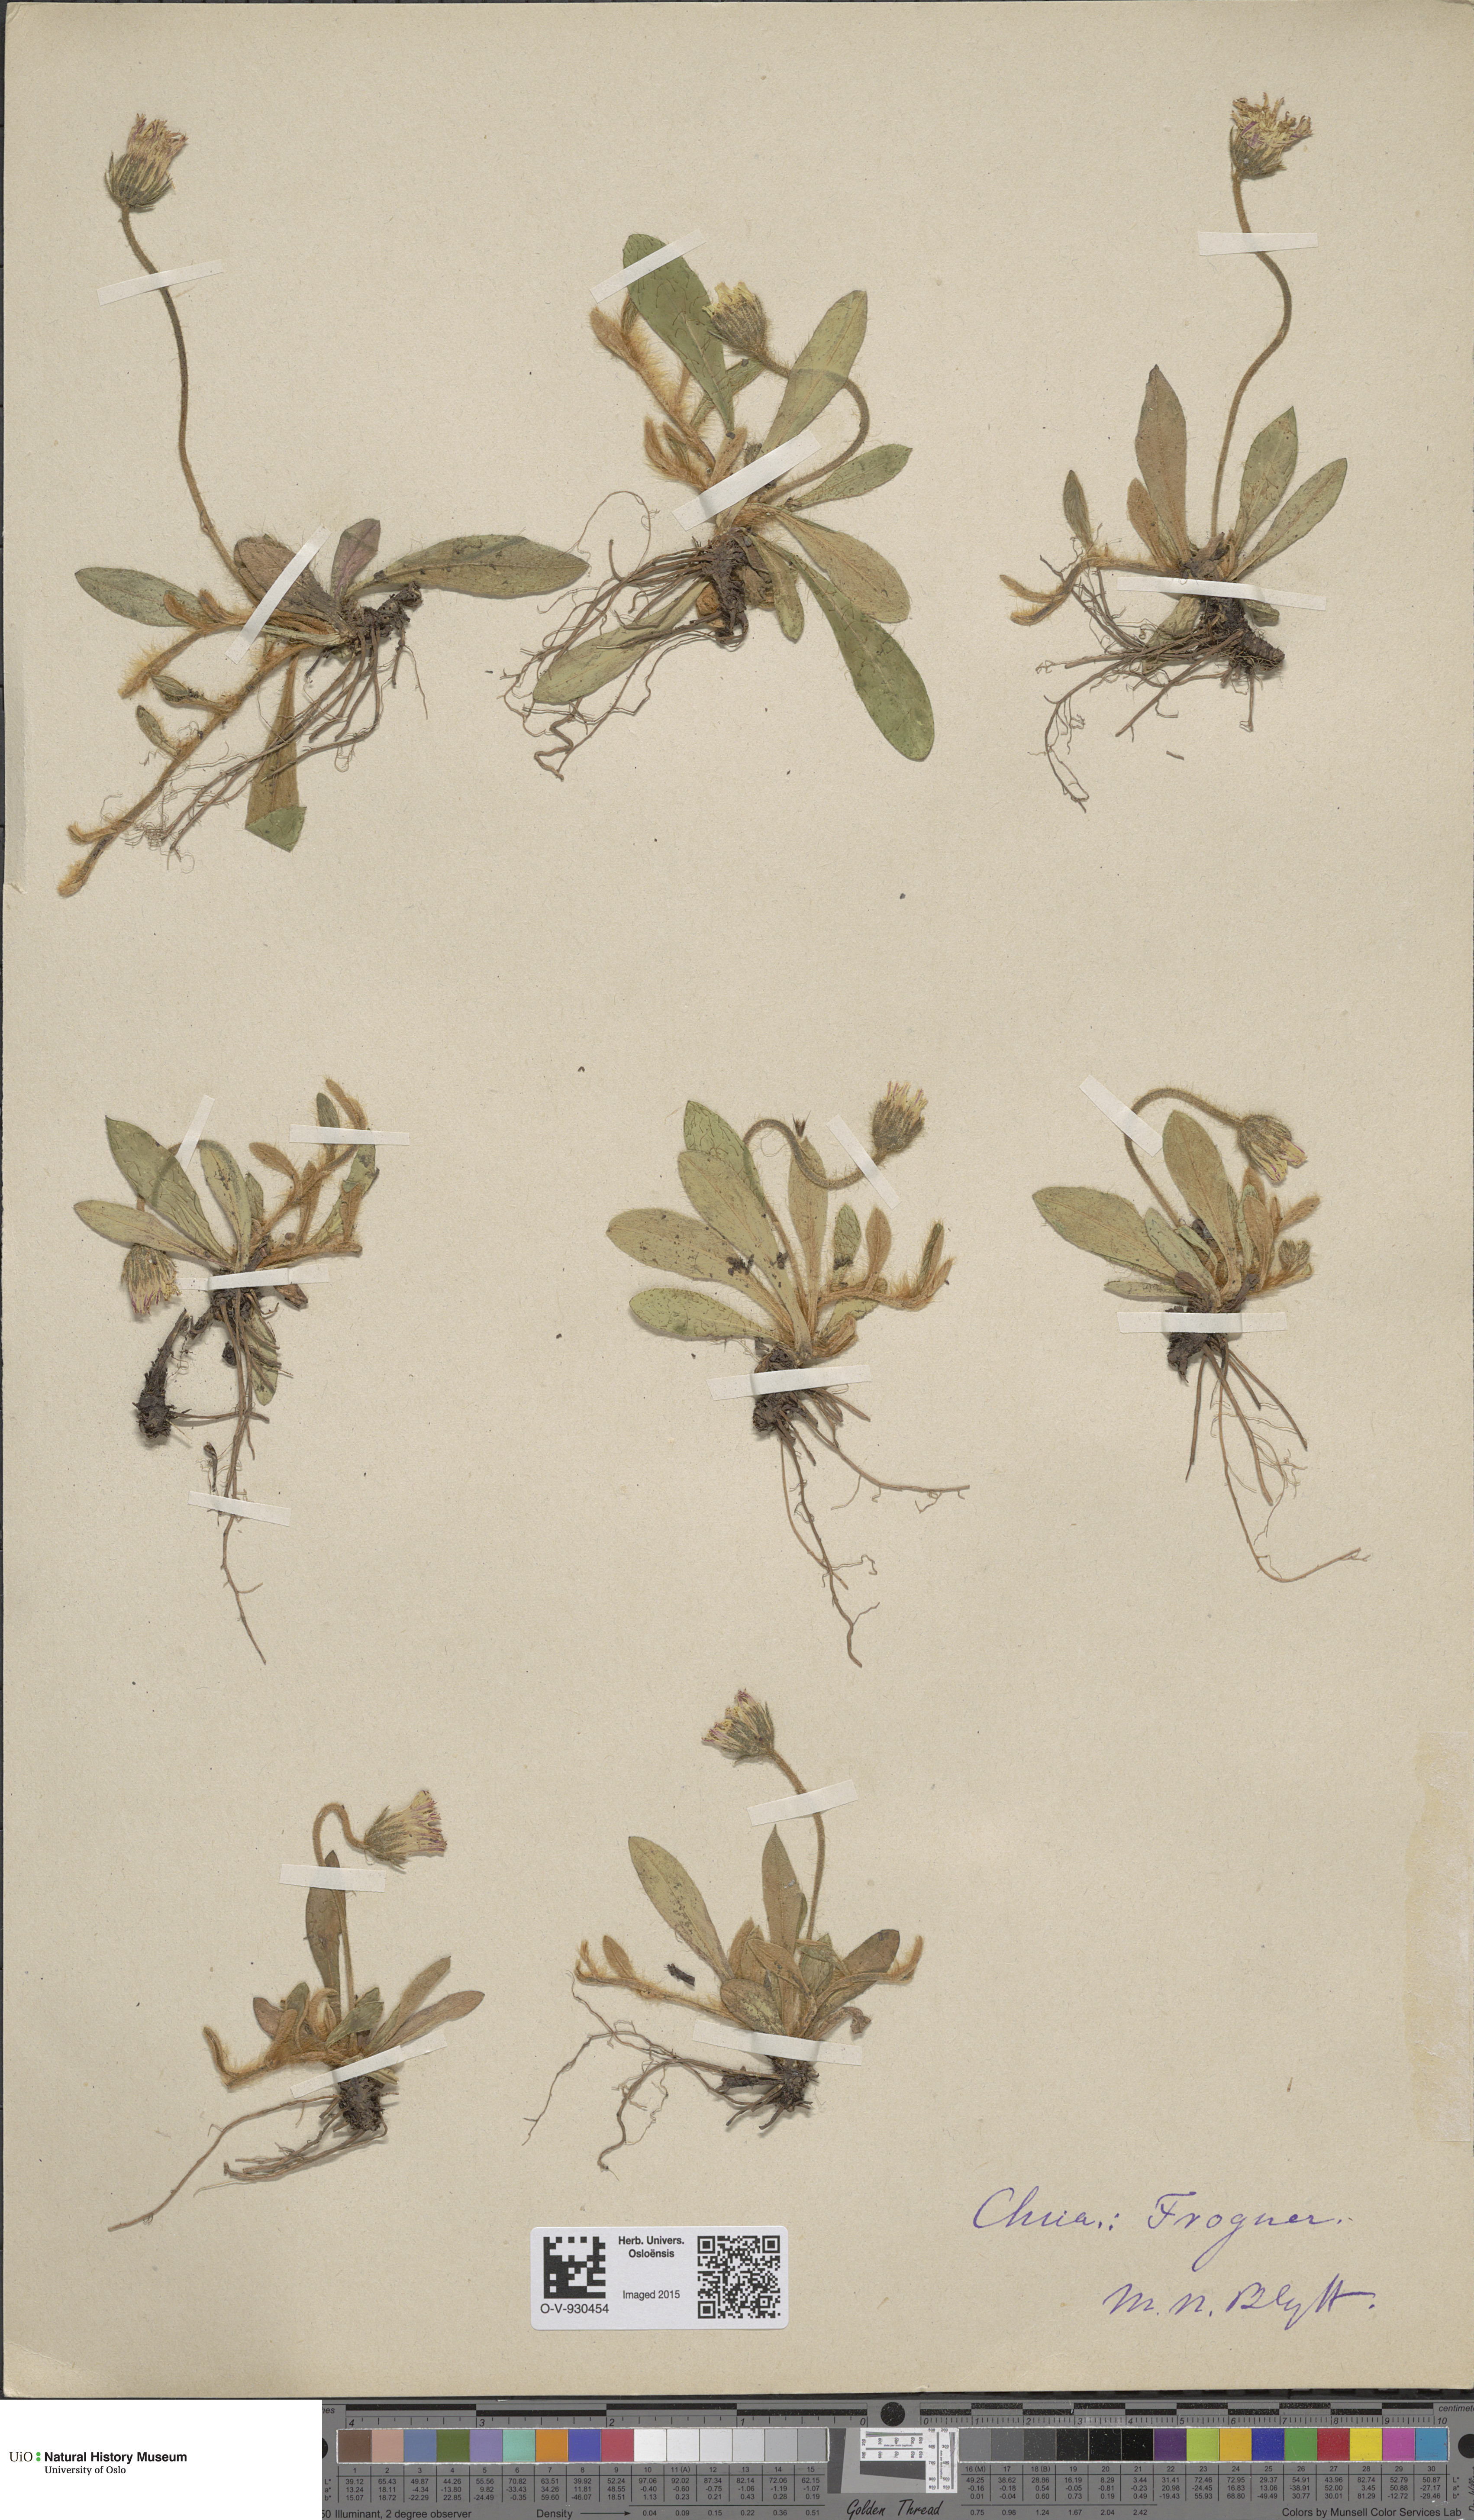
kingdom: Plantae
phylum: Tracheophyta
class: Magnoliopsida
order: Asterales
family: Asteraceae
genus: Pilosella
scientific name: Pilosella officinarum
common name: Mouse-ear hawkweed
